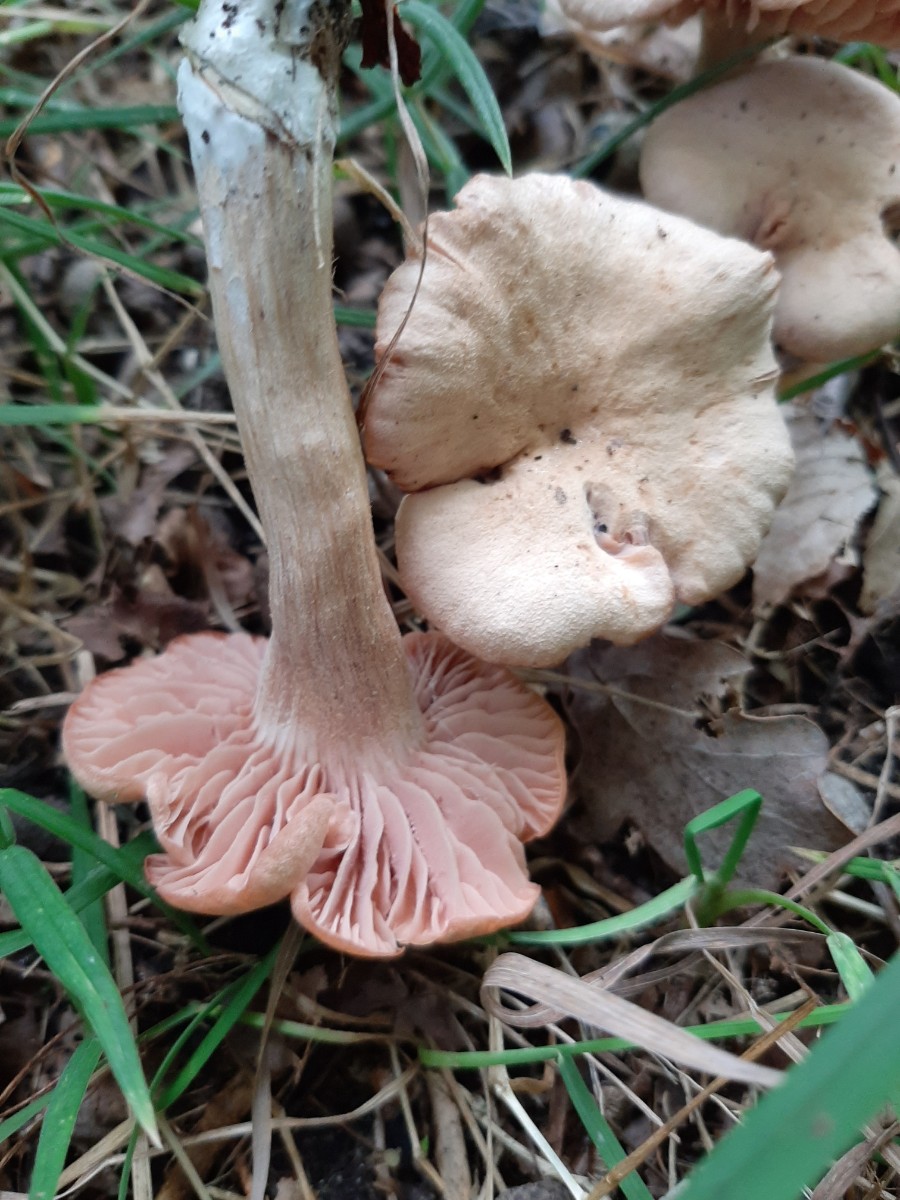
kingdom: Fungi
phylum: Basidiomycota
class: Agaricomycetes
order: Agaricales
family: Hydnangiaceae
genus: Laccaria
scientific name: Laccaria proxima
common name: stor ametysthat
